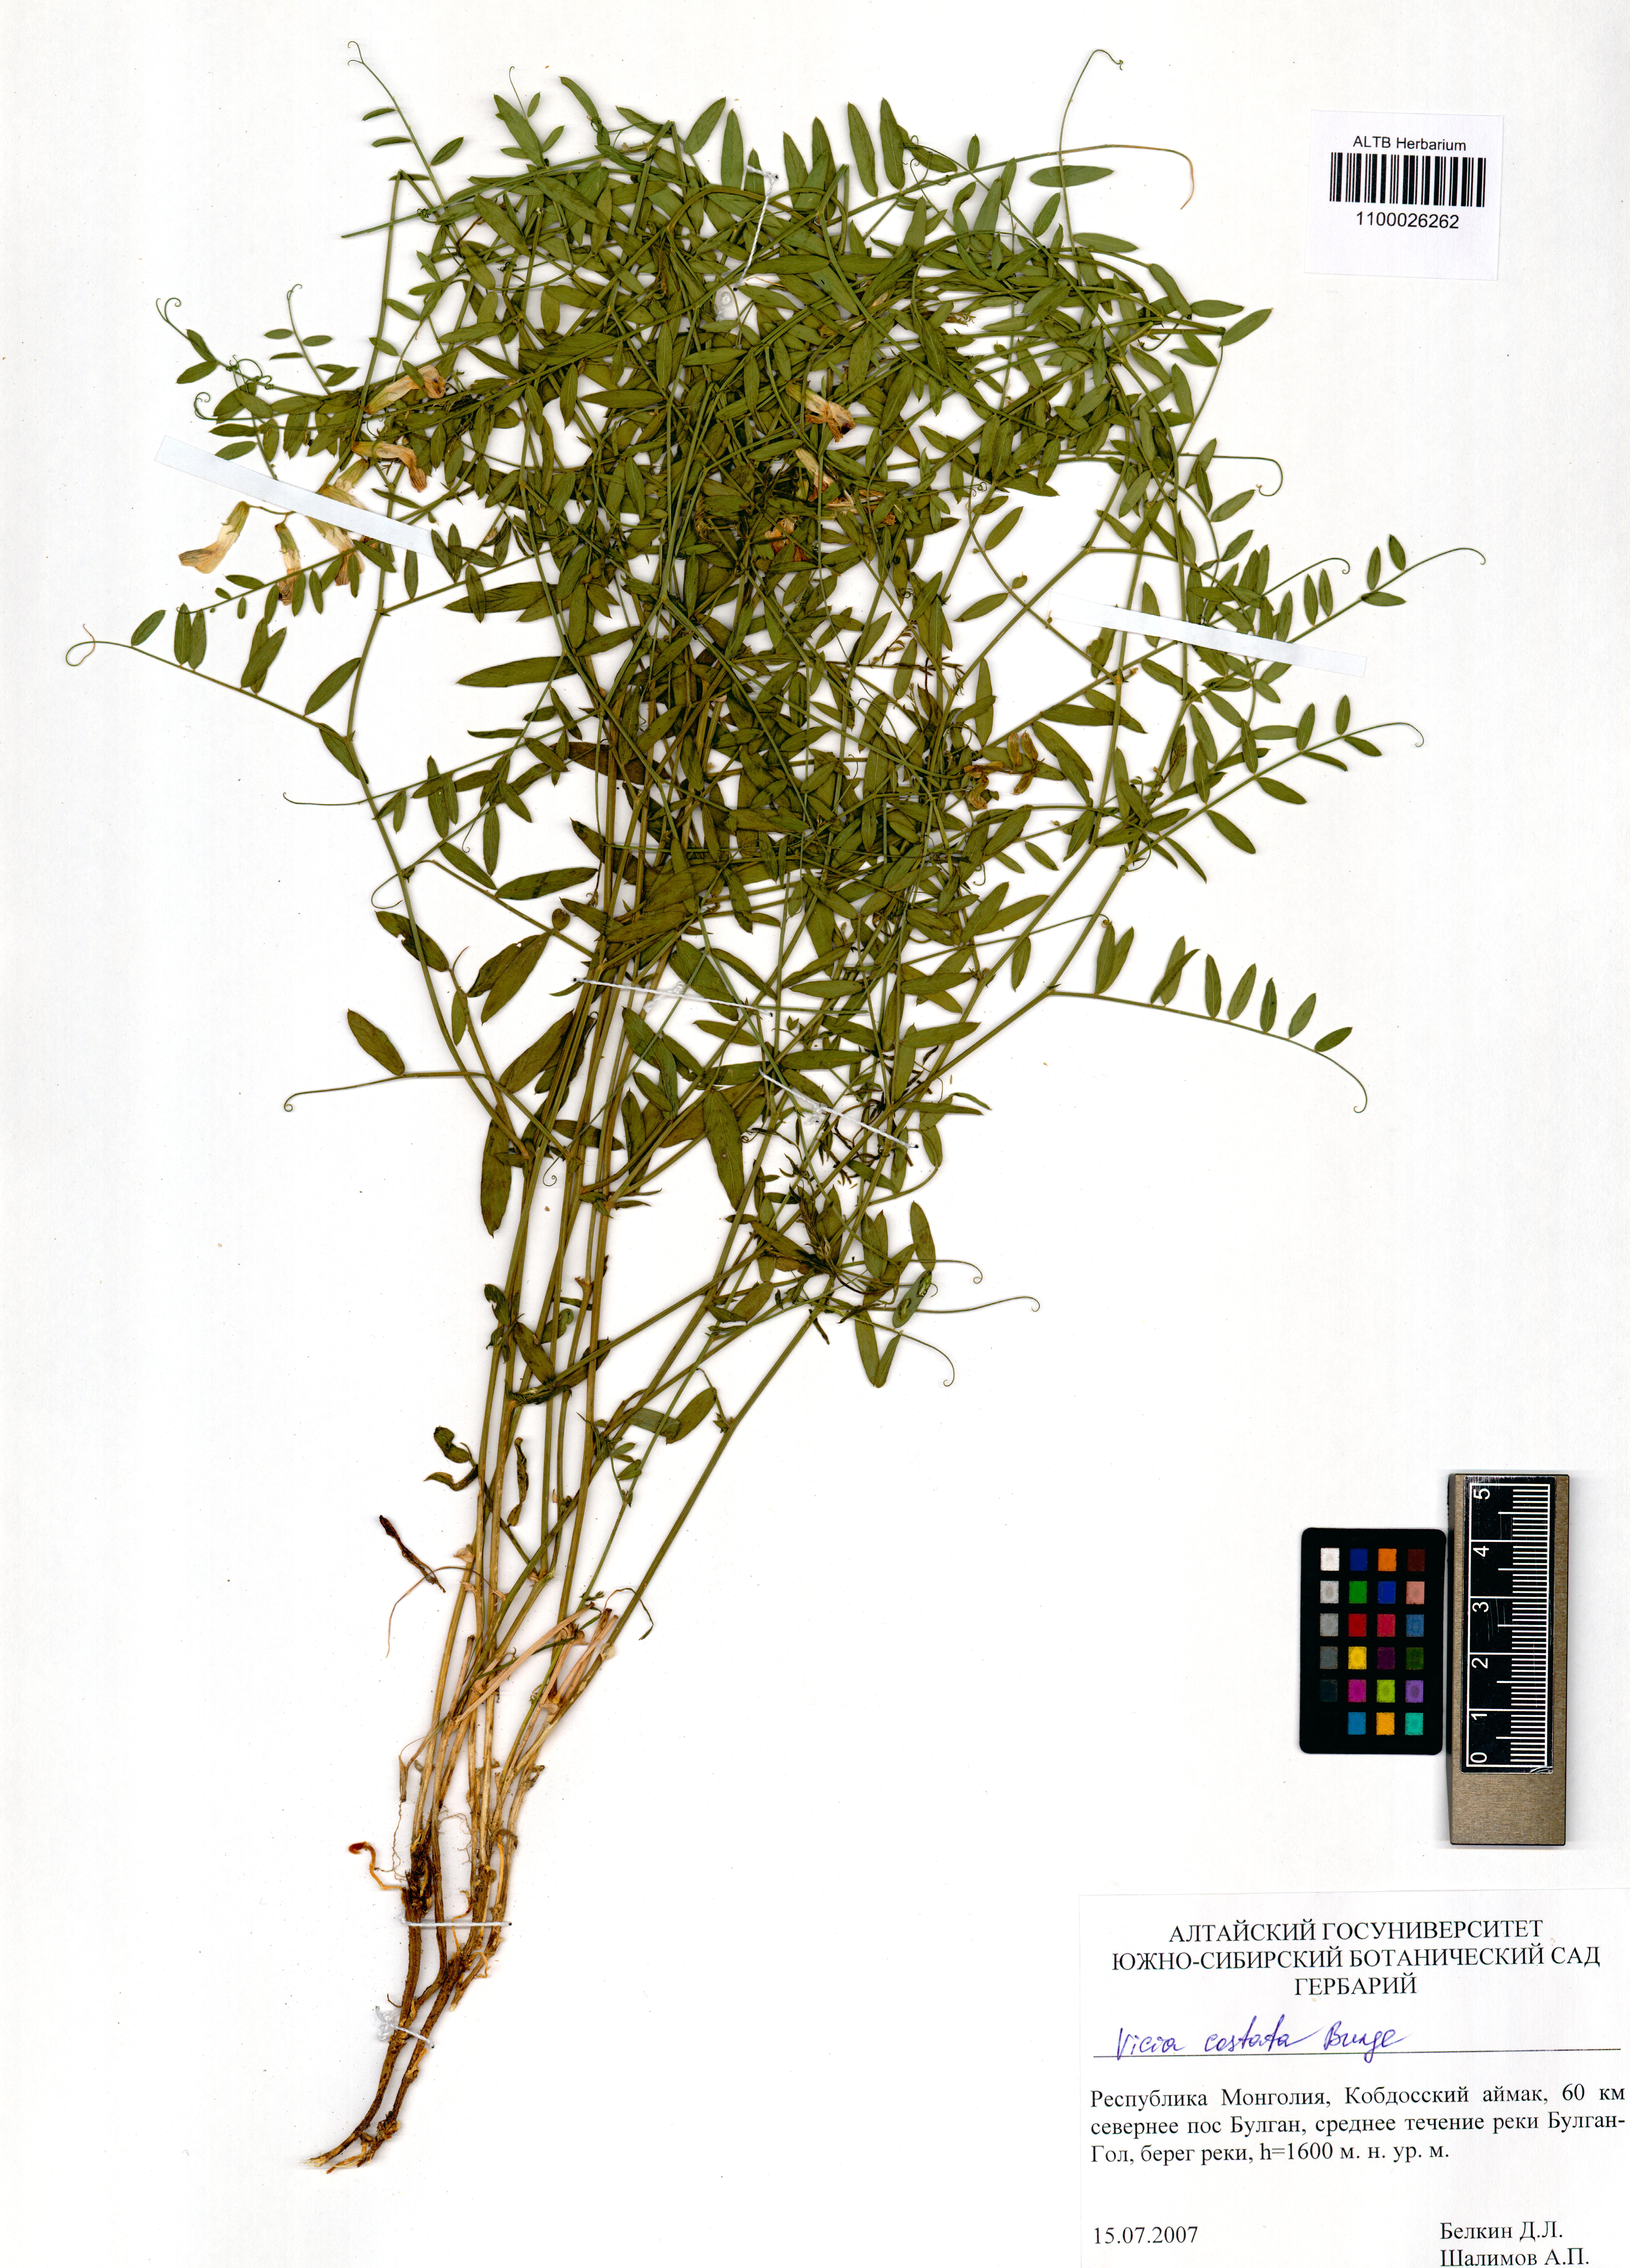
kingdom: Plantae
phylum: Tracheophyta
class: Magnoliopsida
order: Fabales
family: Fabaceae
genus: Vicia
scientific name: Vicia costata
